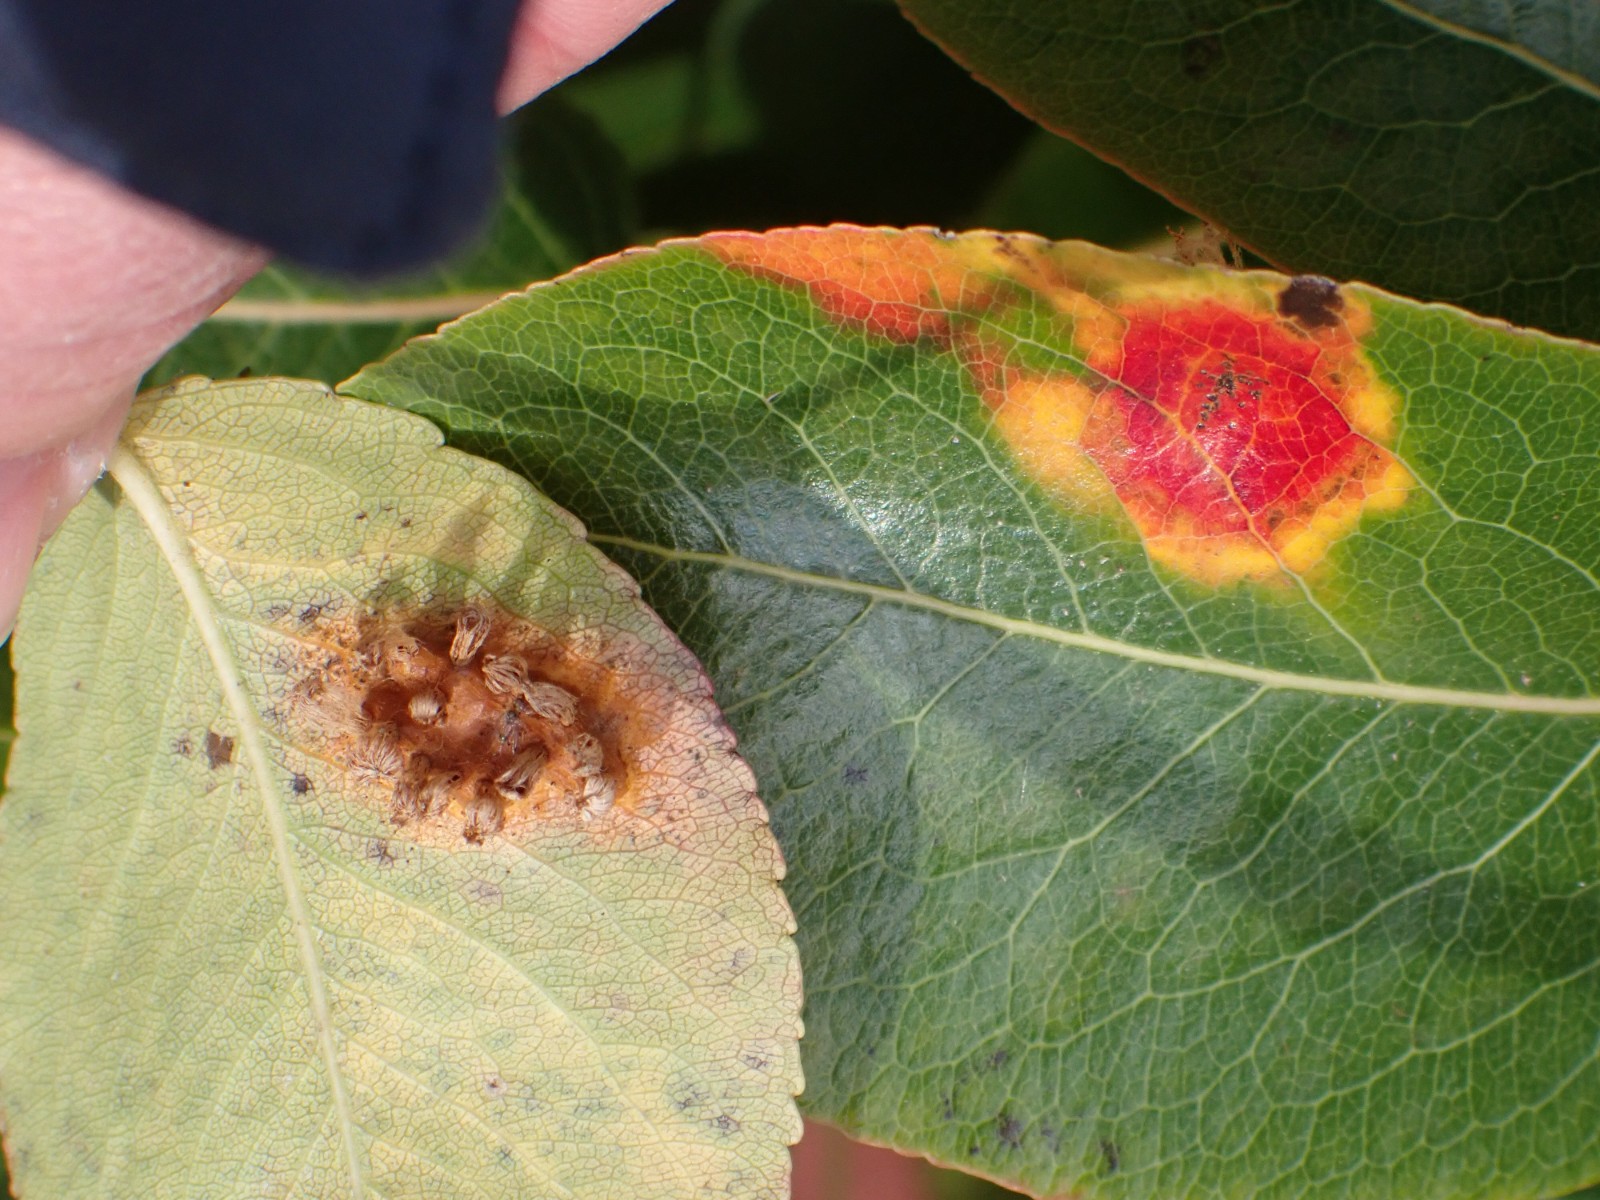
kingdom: Fungi
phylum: Basidiomycota
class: Pucciniomycetes
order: Pucciniales
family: Gymnosporangiaceae
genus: Gymnosporangium
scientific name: Gymnosporangium sabinae
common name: pæregitter-bævrerust
